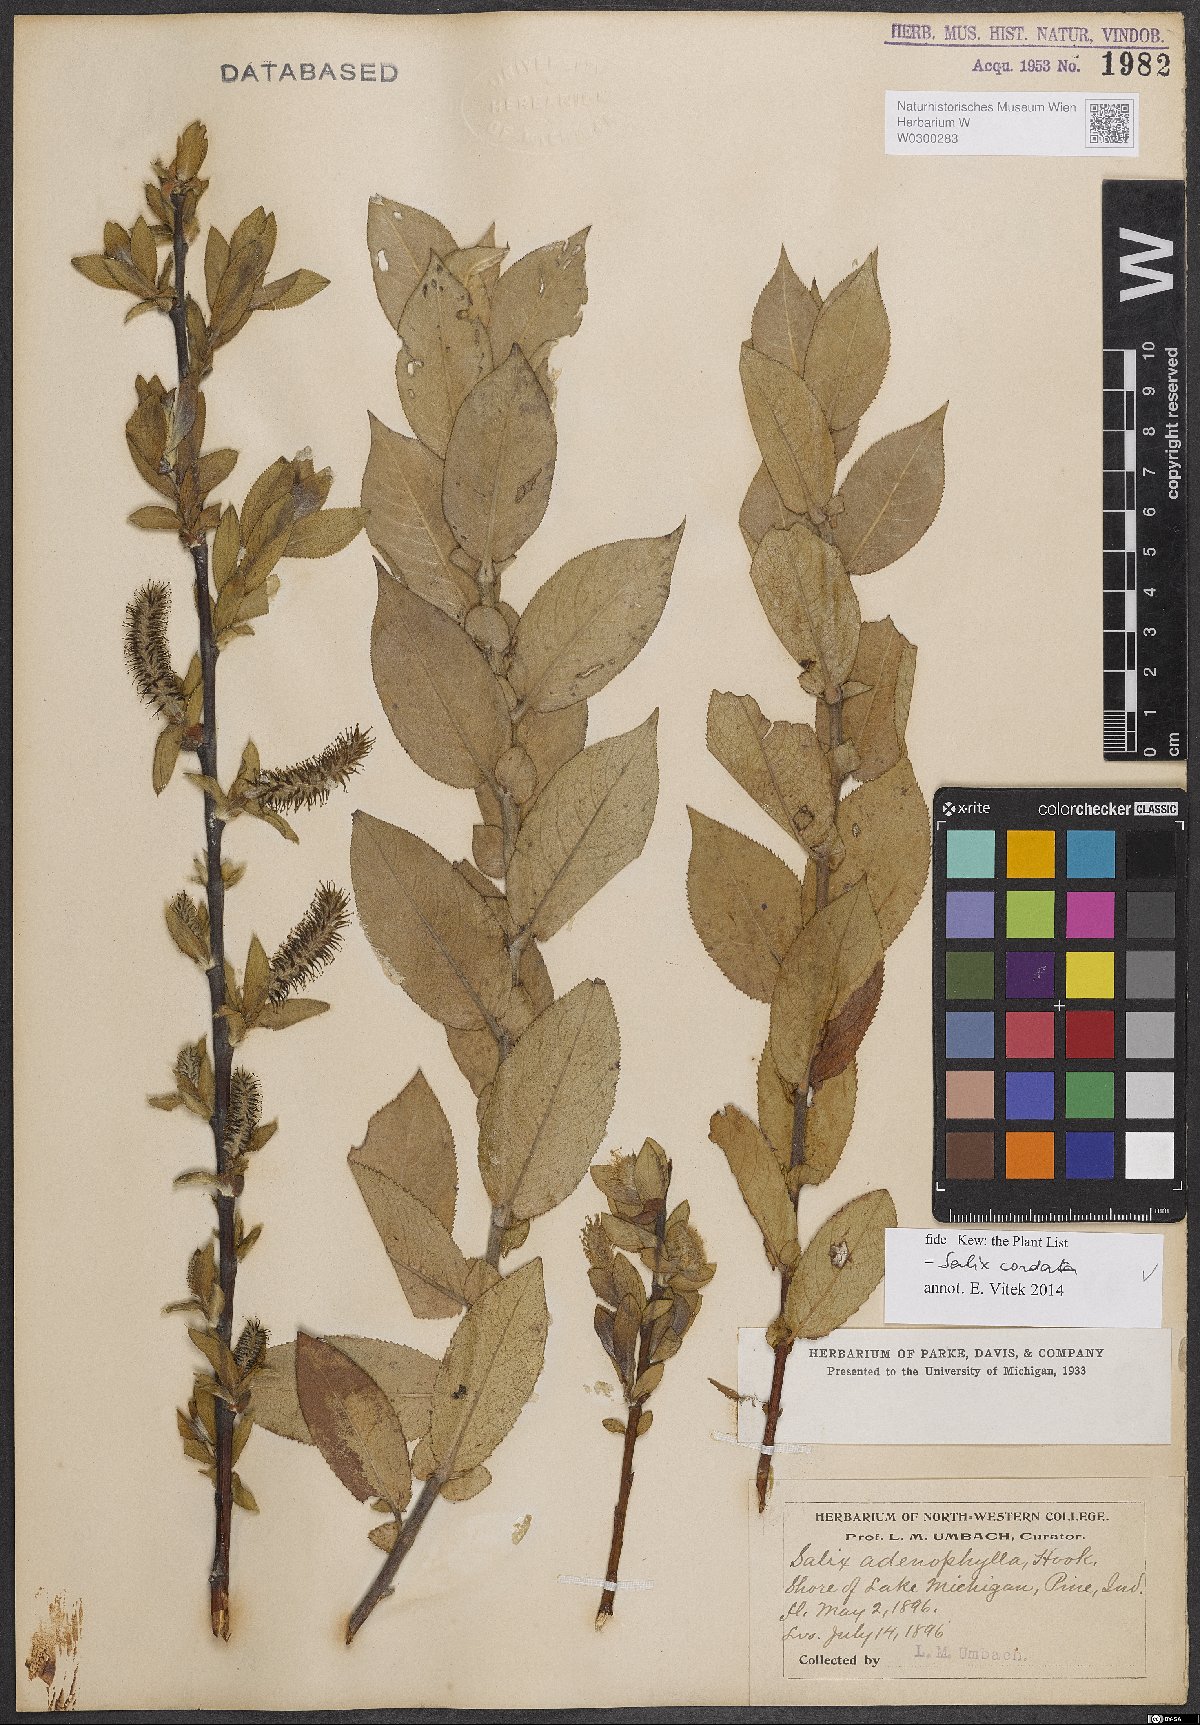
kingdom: Plantae
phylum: Tracheophyta
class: Magnoliopsida
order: Malpighiales
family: Salicaceae
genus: Salix
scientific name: Salix cordata
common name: Heart-leaf willow
